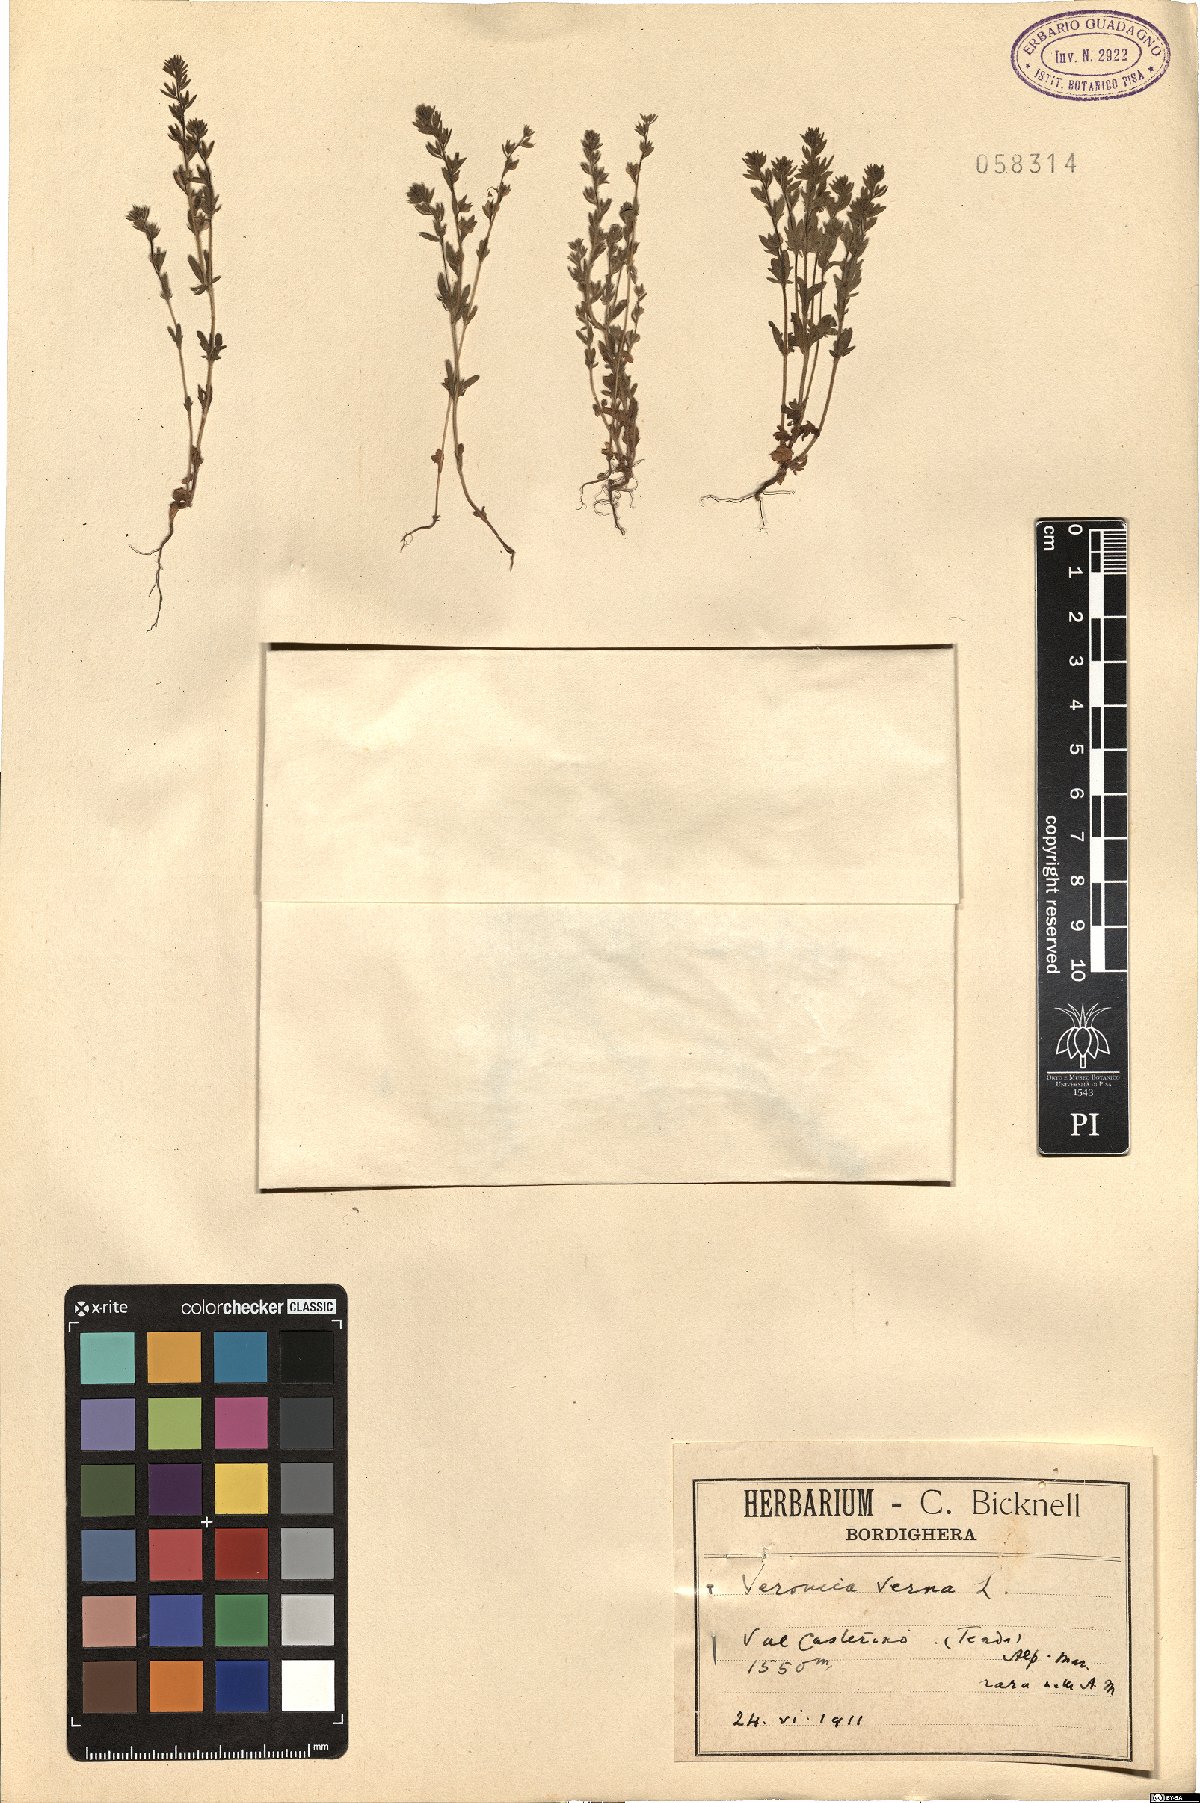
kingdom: Plantae
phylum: Tracheophyta
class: Magnoliopsida
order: Lamiales
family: Plantaginaceae
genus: Veronica
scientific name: Veronica verna
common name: Spring speedwell
